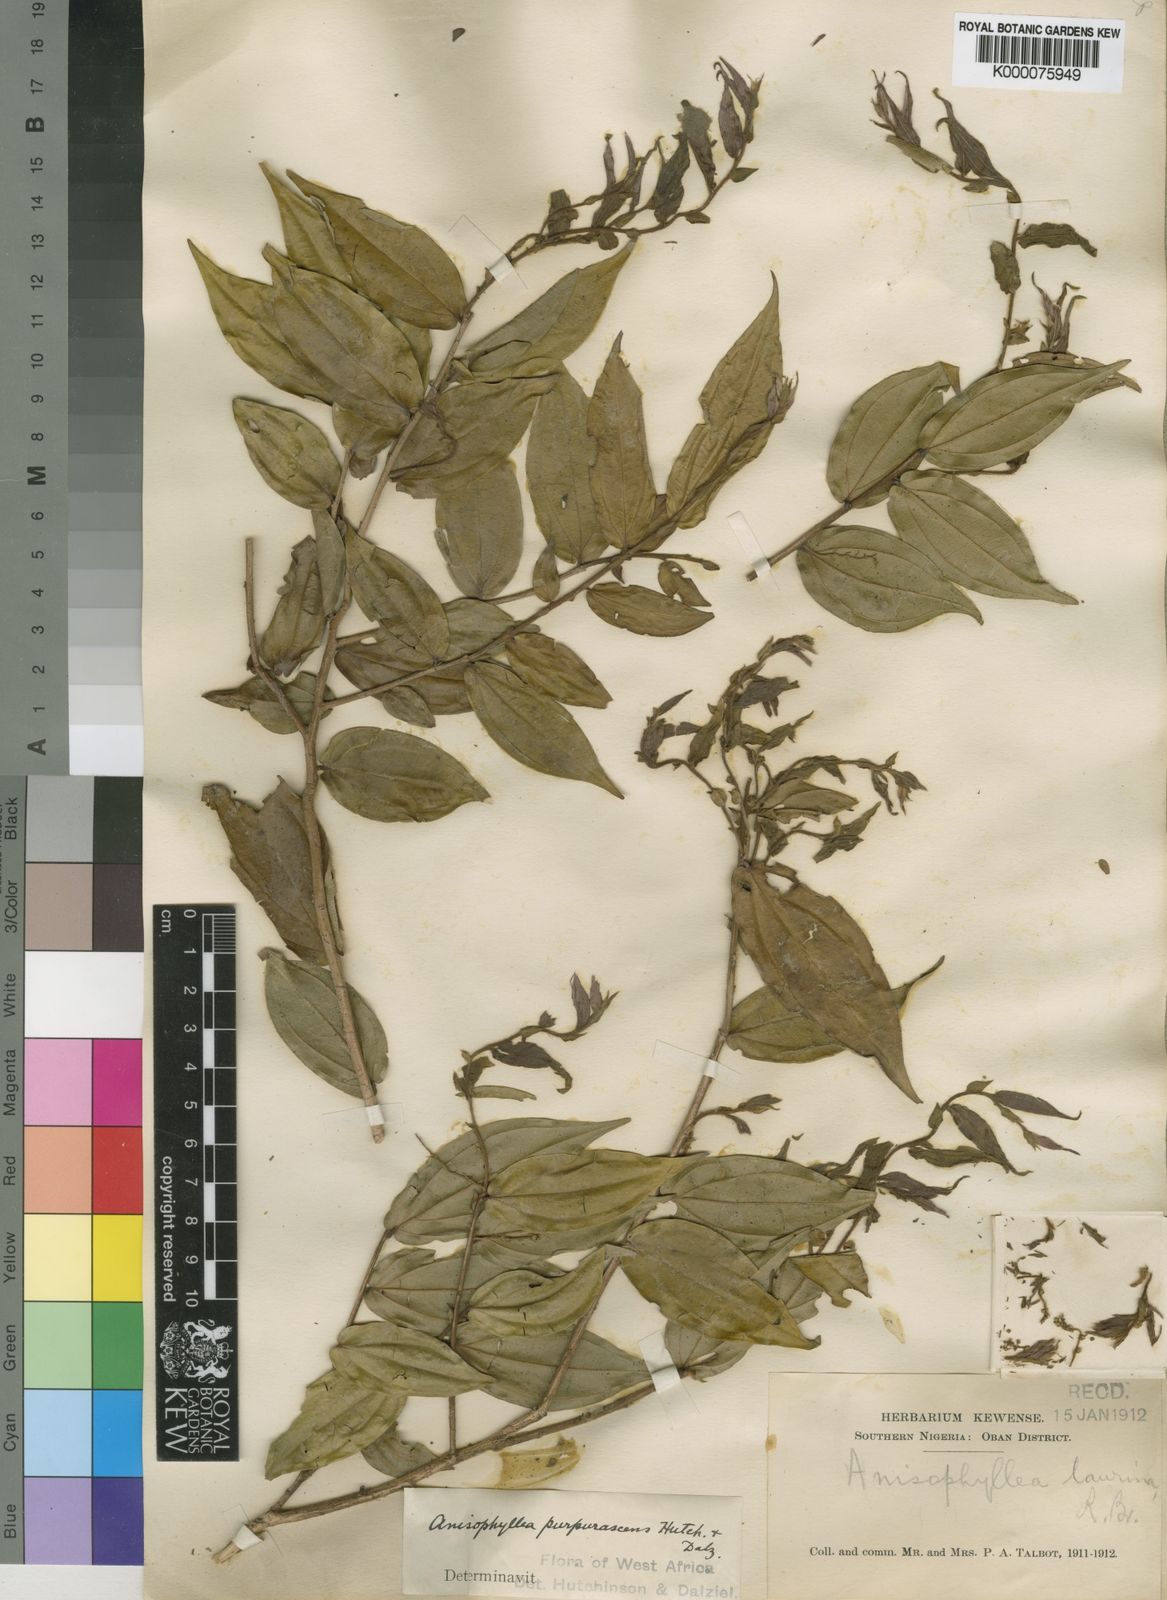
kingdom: Plantae
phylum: Tracheophyta
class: Magnoliopsida
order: Cucurbitales
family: Anisophylleaceae
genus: Anisophyllea
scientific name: Anisophyllea purpurascens
